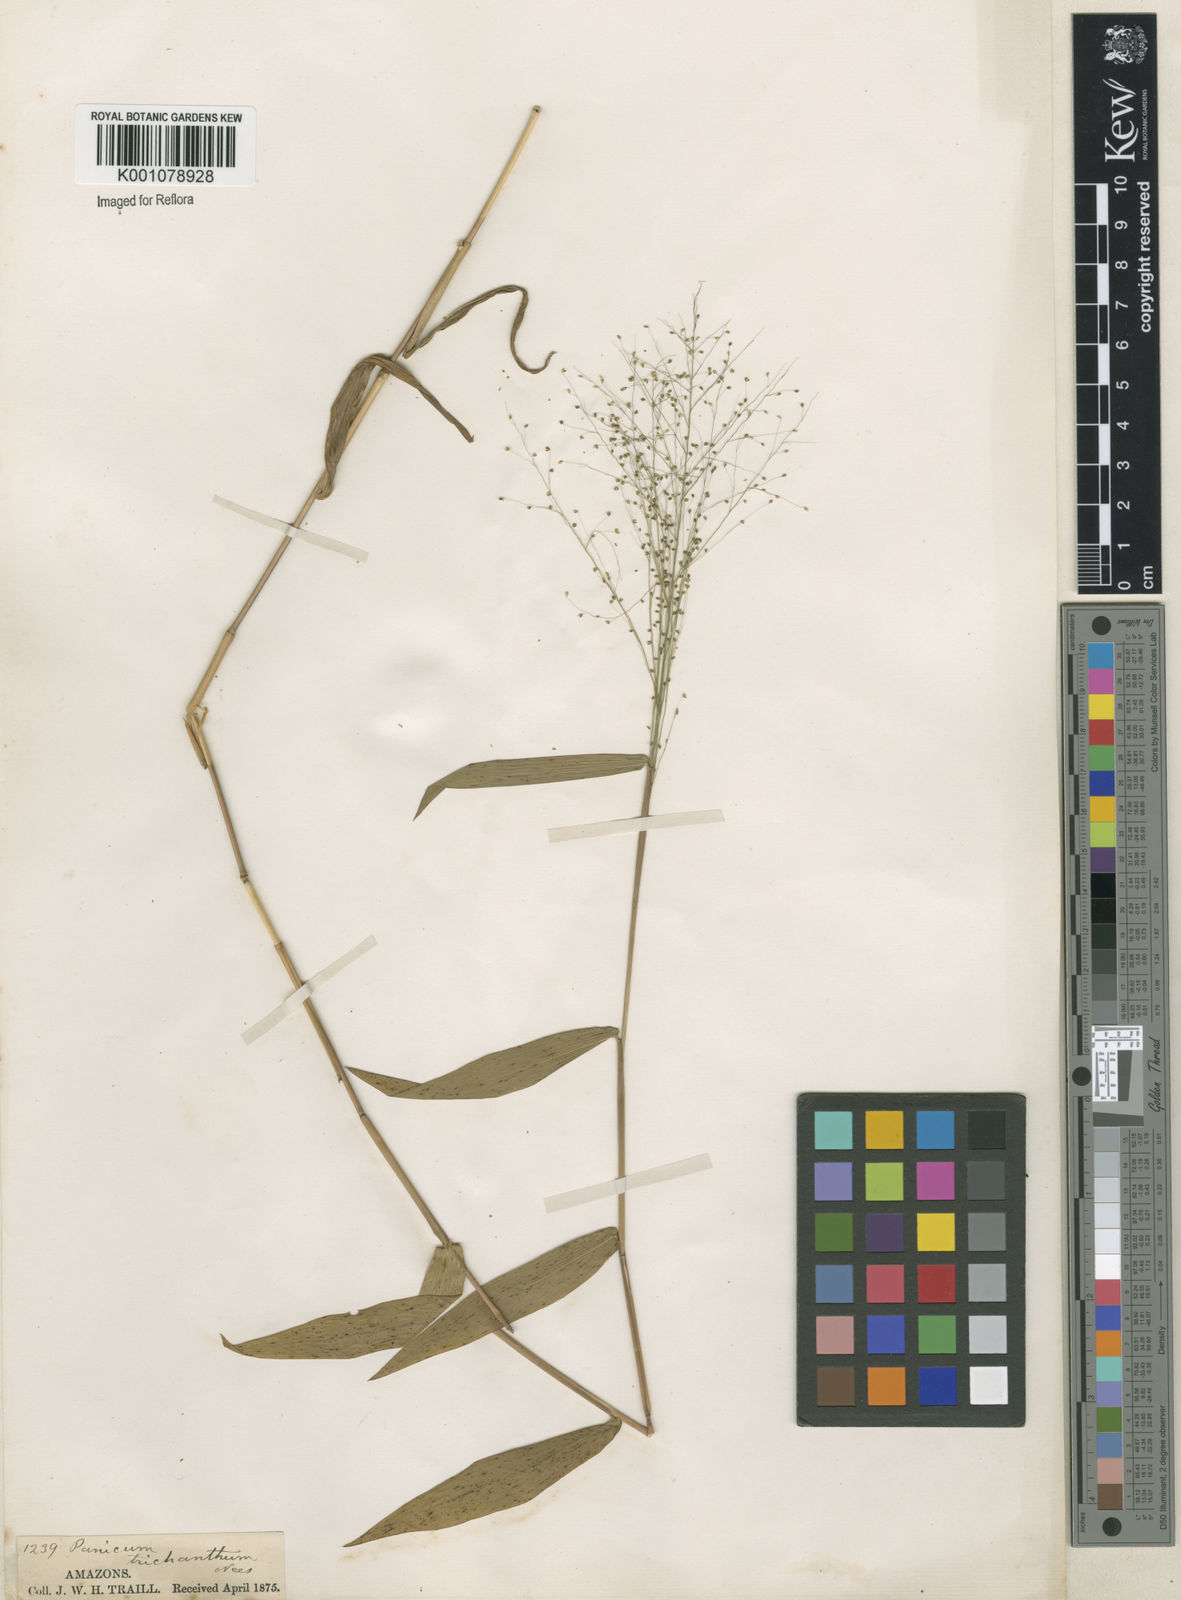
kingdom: Plantae
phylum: Tracheophyta
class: Liliopsida
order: Poales
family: Poaceae
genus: Panicum
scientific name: Panicum
